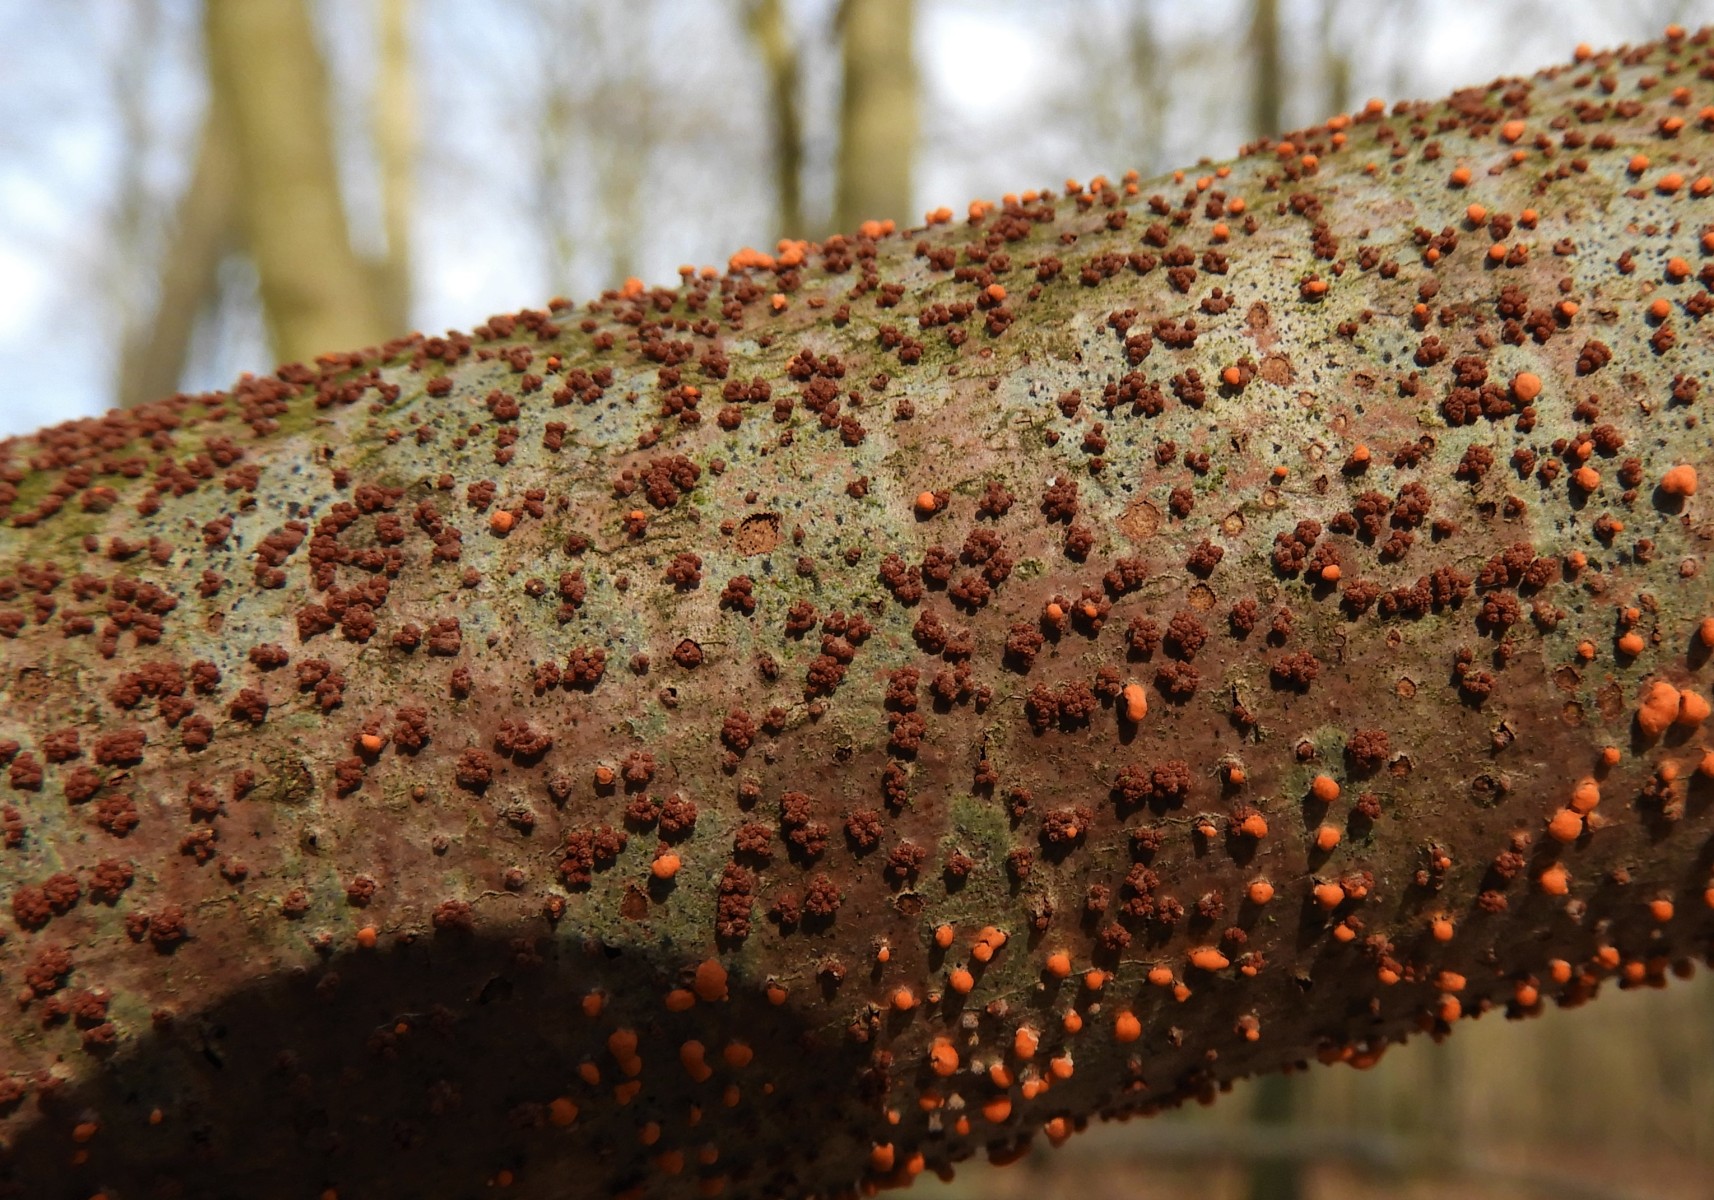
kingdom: Fungi
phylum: Ascomycota
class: Sordariomycetes
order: Hypocreales
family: Nectriaceae
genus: Nectria
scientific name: Nectria cinnabarina
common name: almindelig cinnobersvamp
